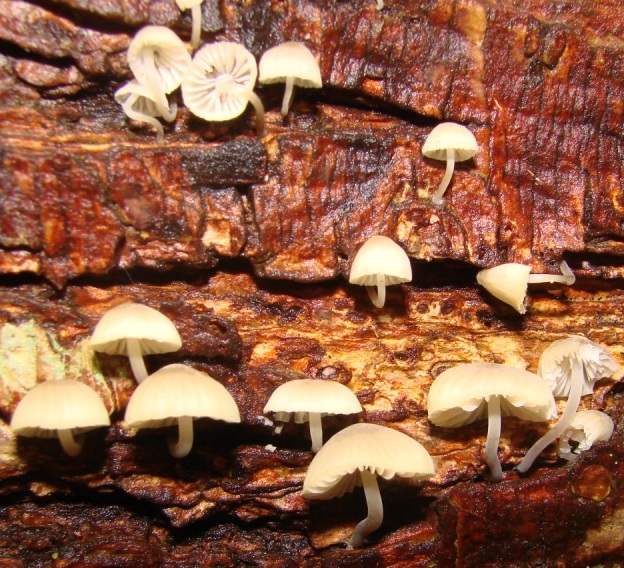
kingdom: Fungi
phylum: Basidiomycota
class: Agaricomycetes
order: Agaricales
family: Mycenaceae
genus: Mycena
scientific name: Mycena arcangeliana
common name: oliven-huesvamp
